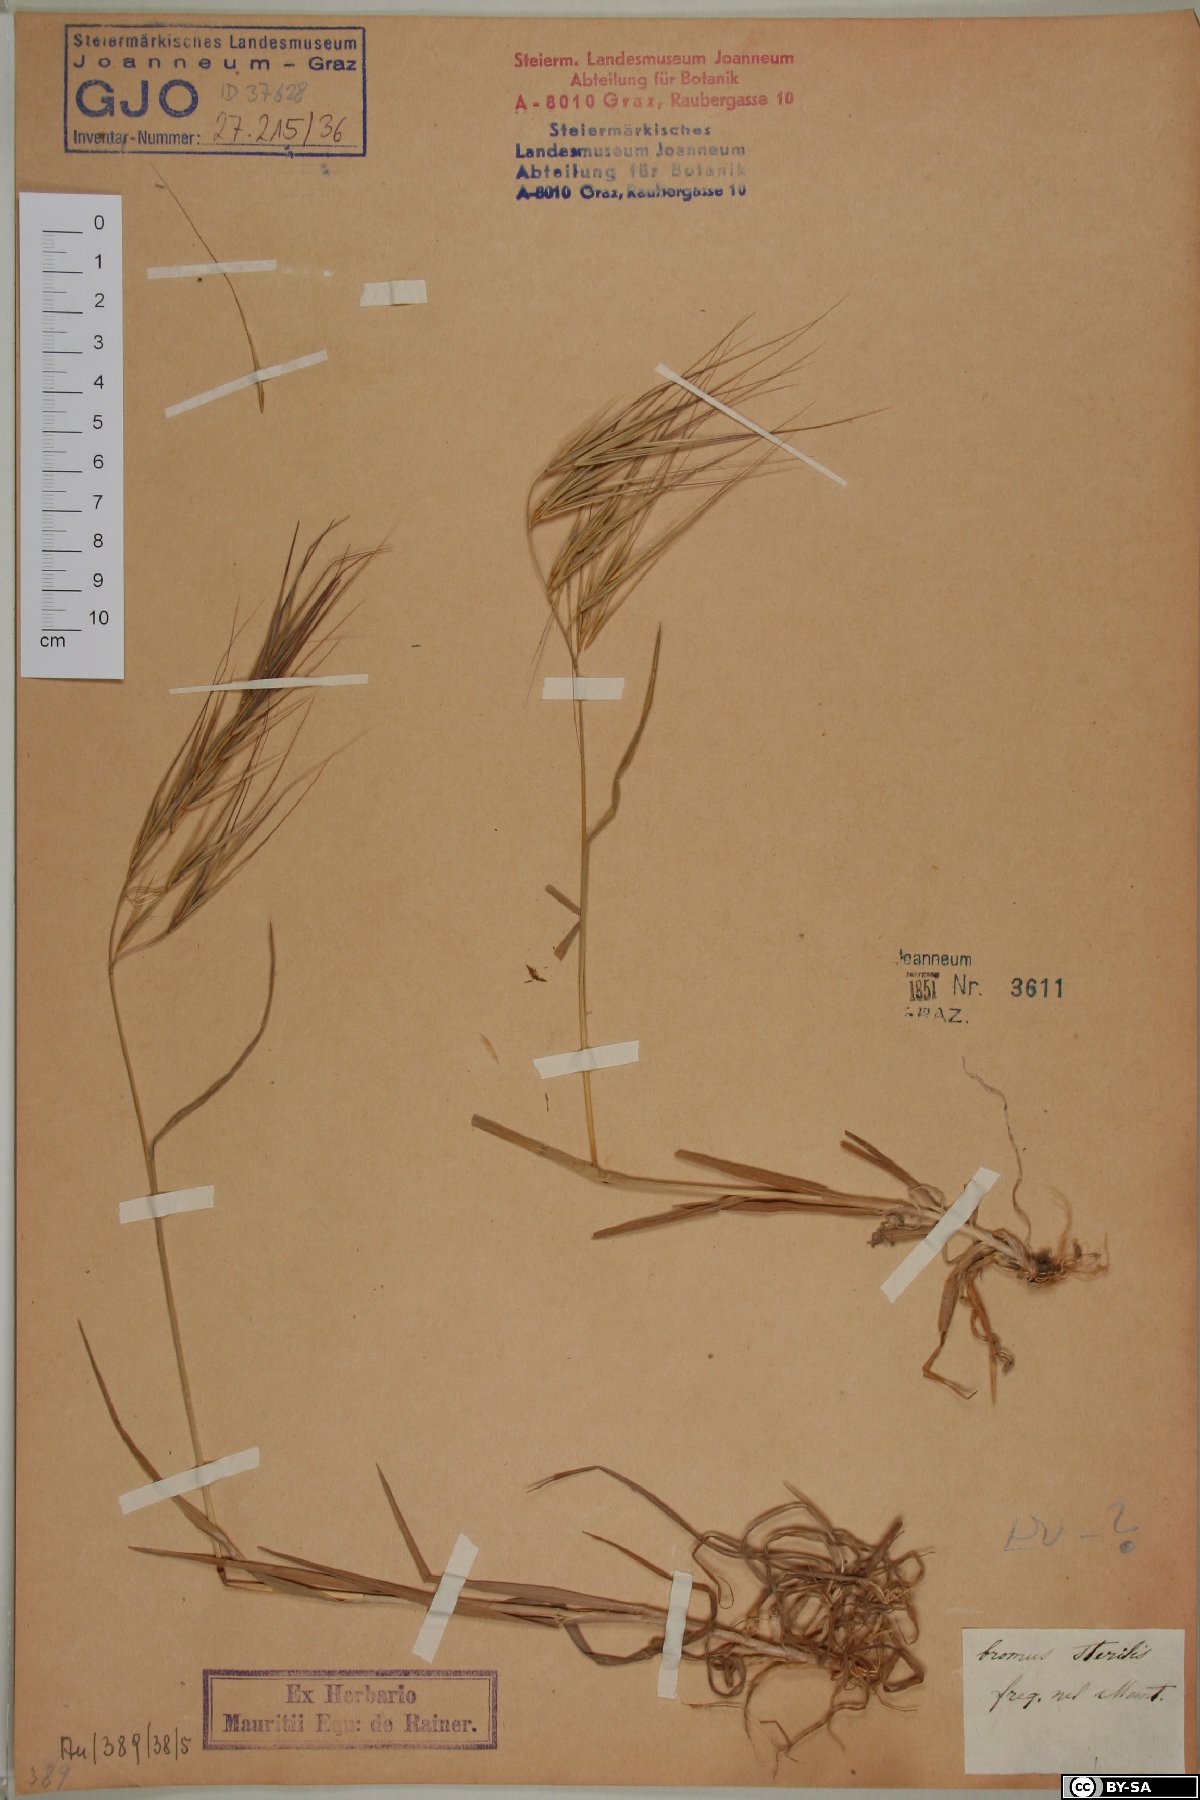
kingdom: Plantae
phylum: Tracheophyta
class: Liliopsida
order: Poales
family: Poaceae
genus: Bromus
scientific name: Bromus sterilis
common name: Poverty brome
